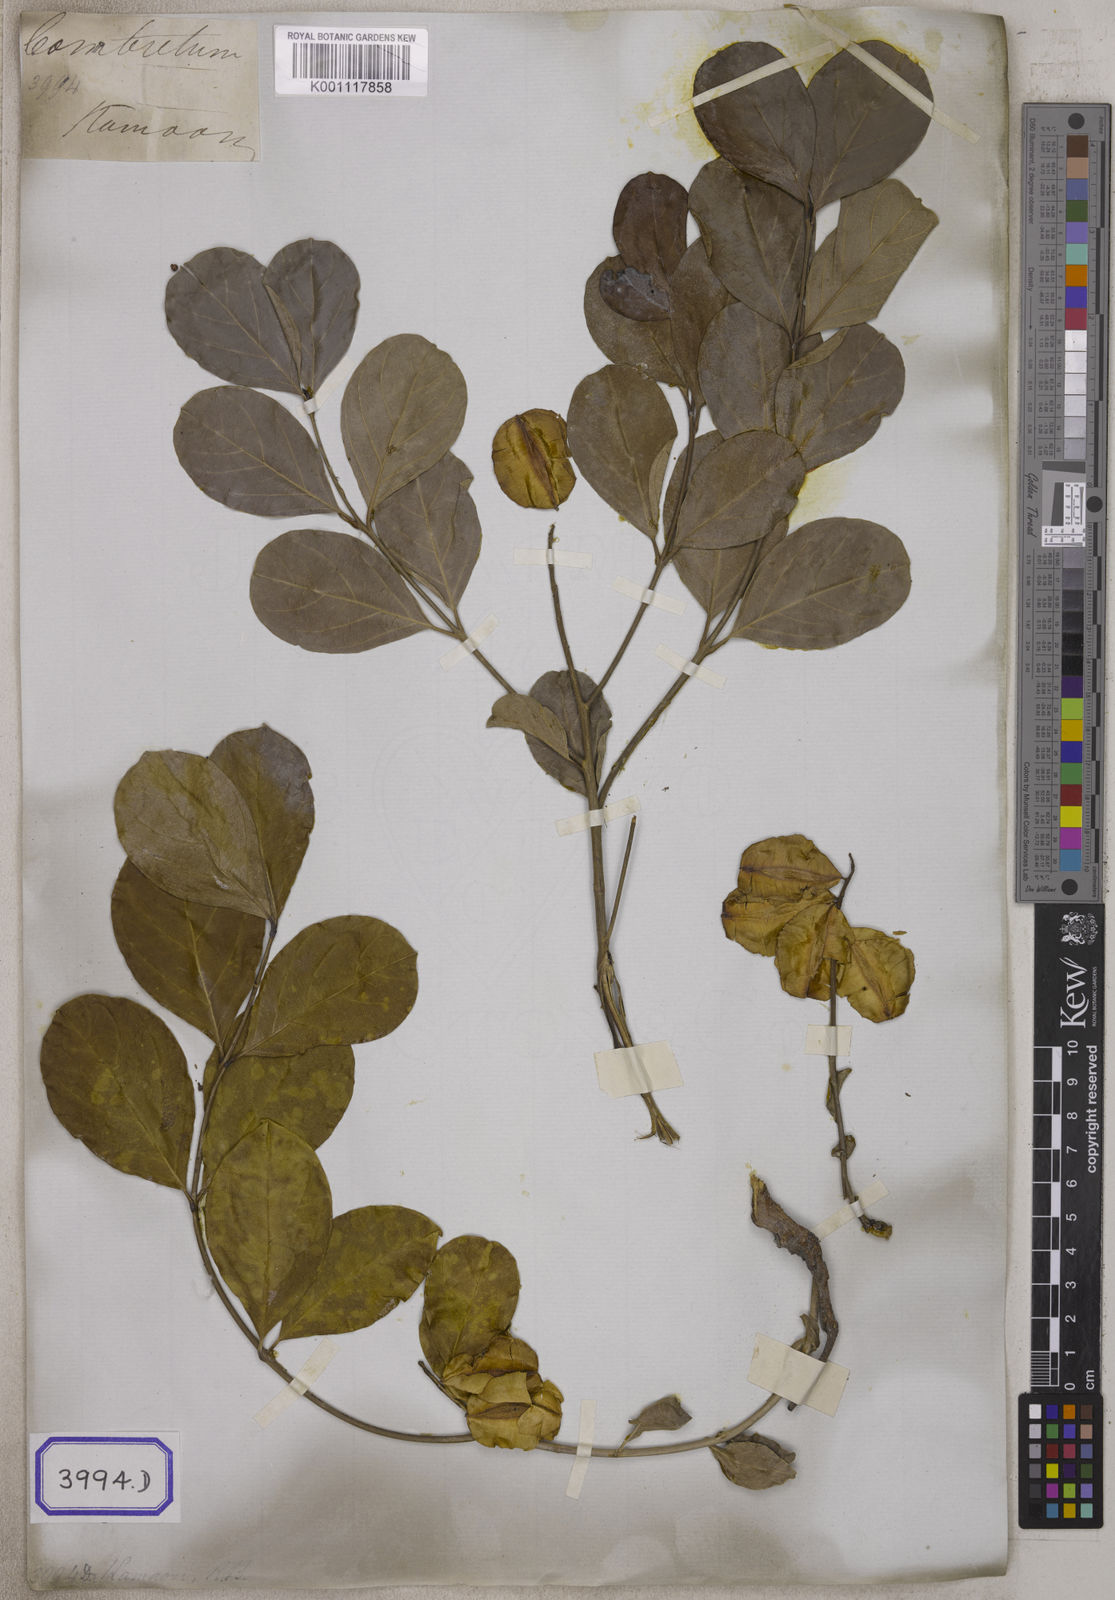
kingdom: Plantae
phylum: Tracheophyta
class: Magnoliopsida
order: Myrtales
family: Combretaceae
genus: Combretum
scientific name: Combretum
